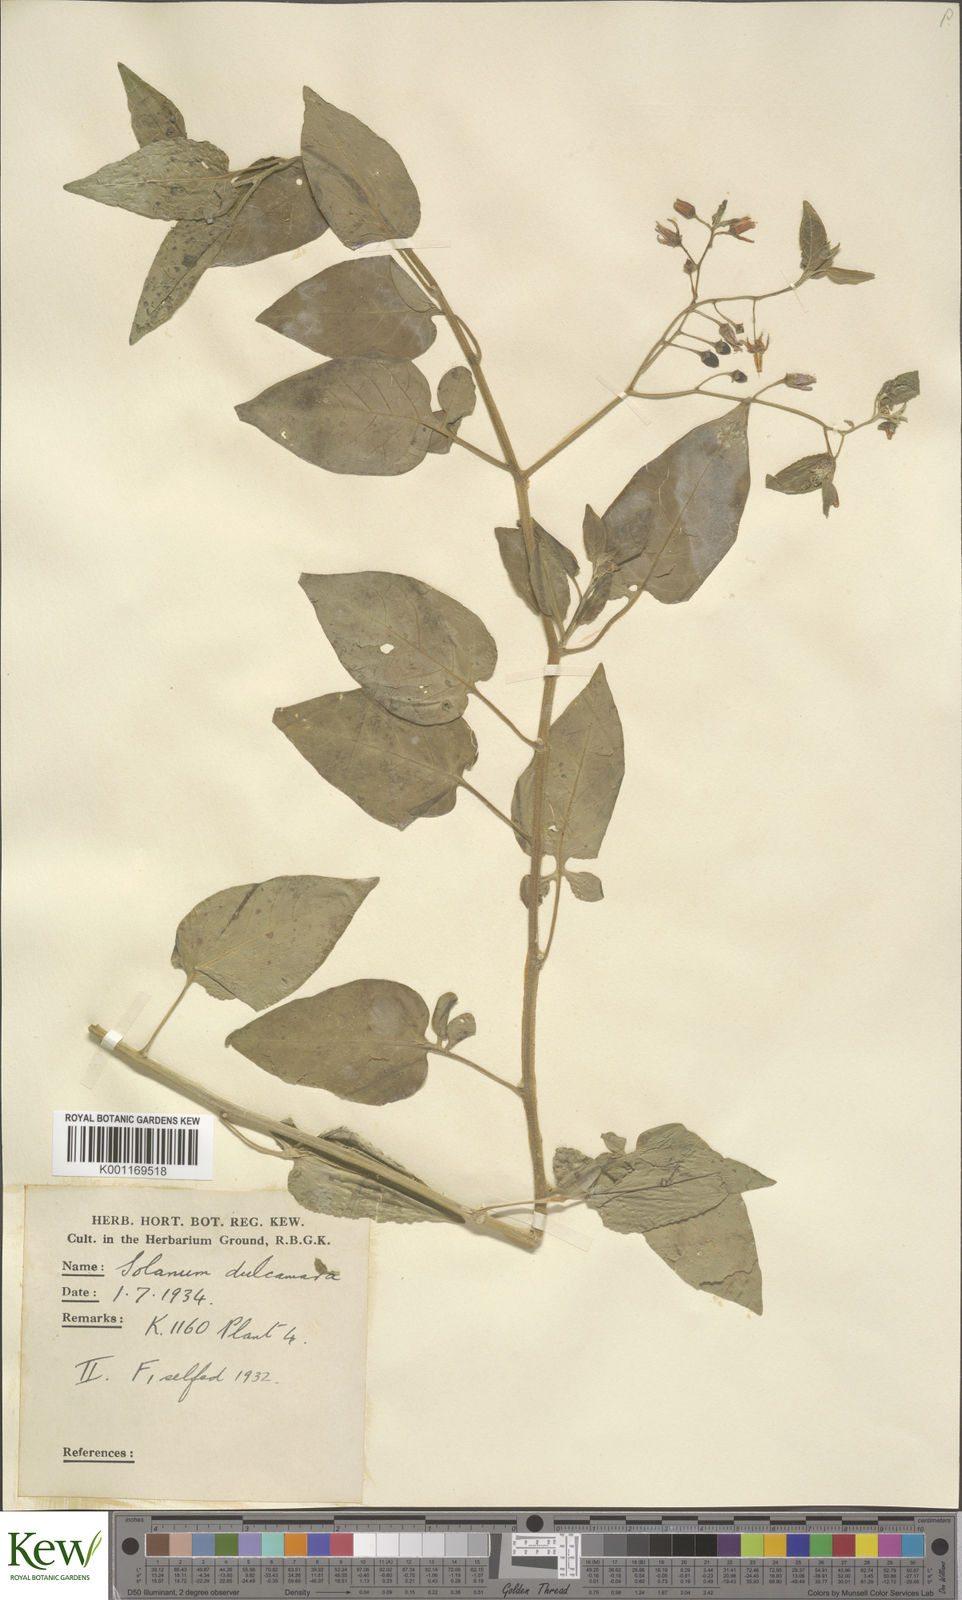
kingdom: Plantae
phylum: Tracheophyta
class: Magnoliopsida
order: Solanales
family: Solanaceae
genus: Solanum
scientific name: Solanum dulcamara
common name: Climbing nightshade
